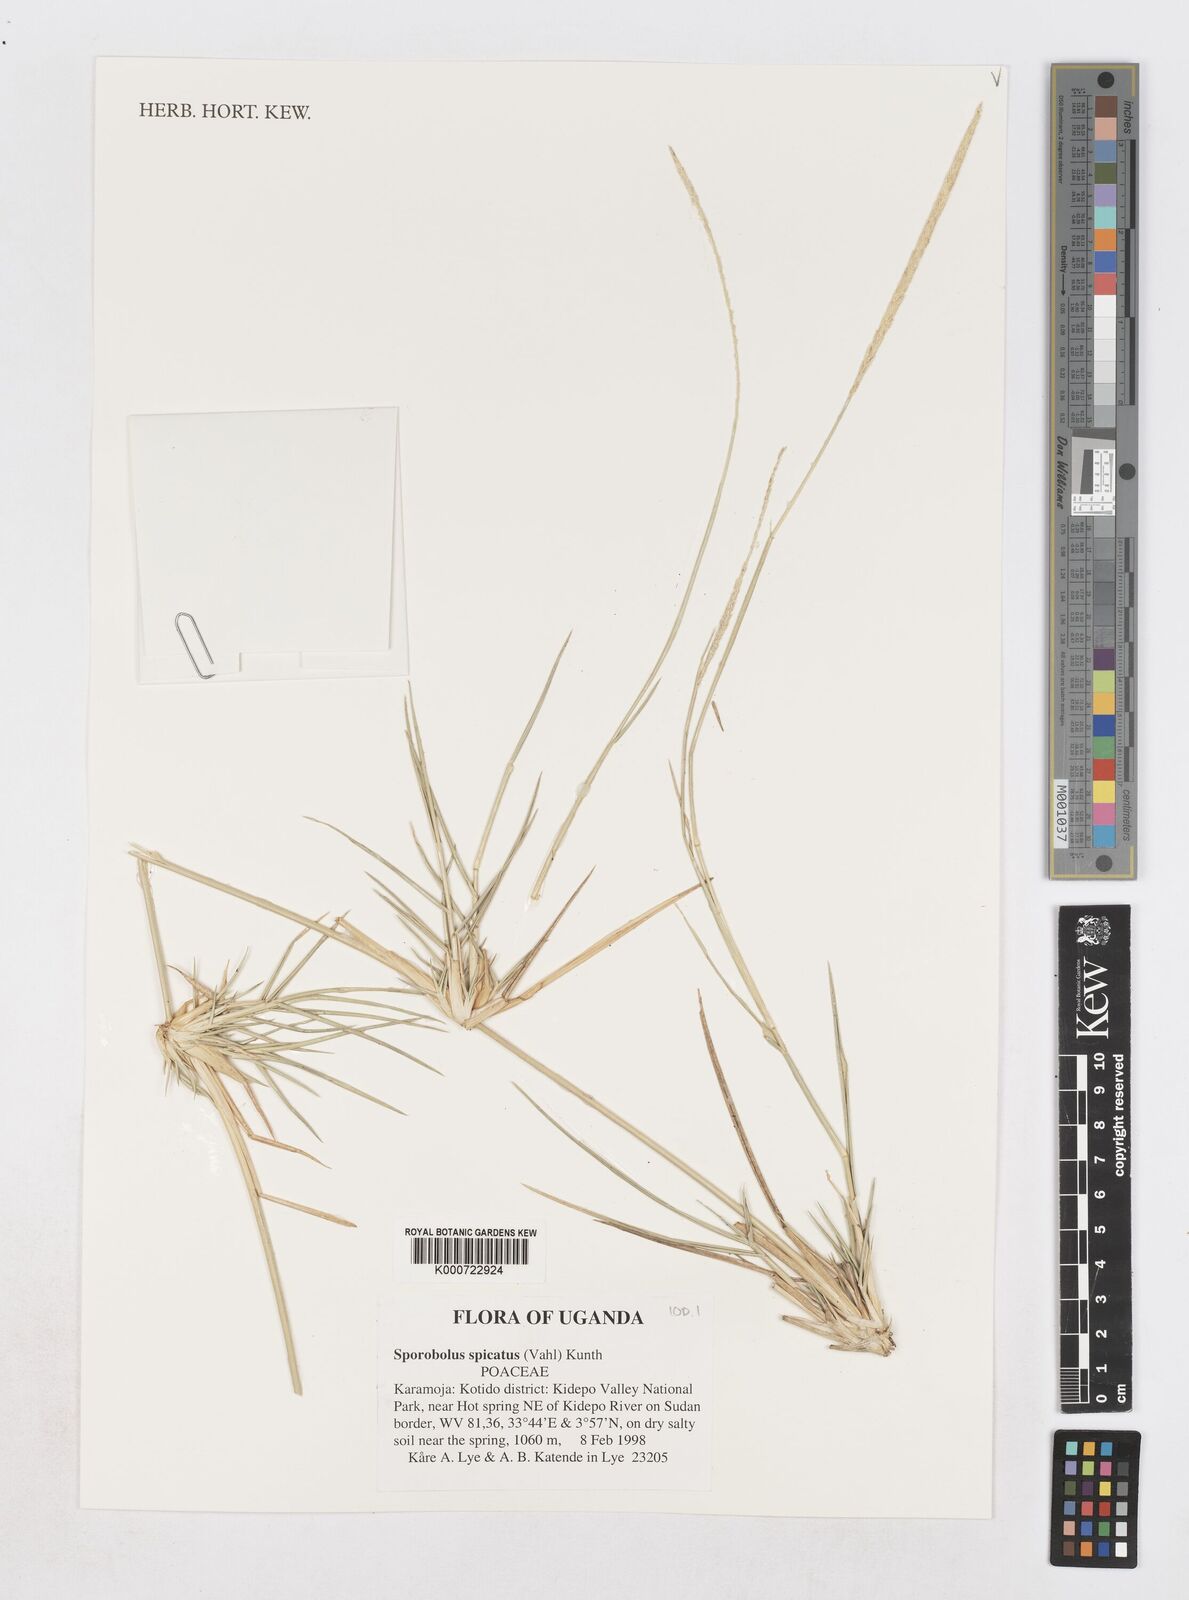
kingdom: Plantae
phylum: Tracheophyta
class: Liliopsida
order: Poales
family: Poaceae
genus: Sporobolus
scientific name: Sporobolus spicatus
